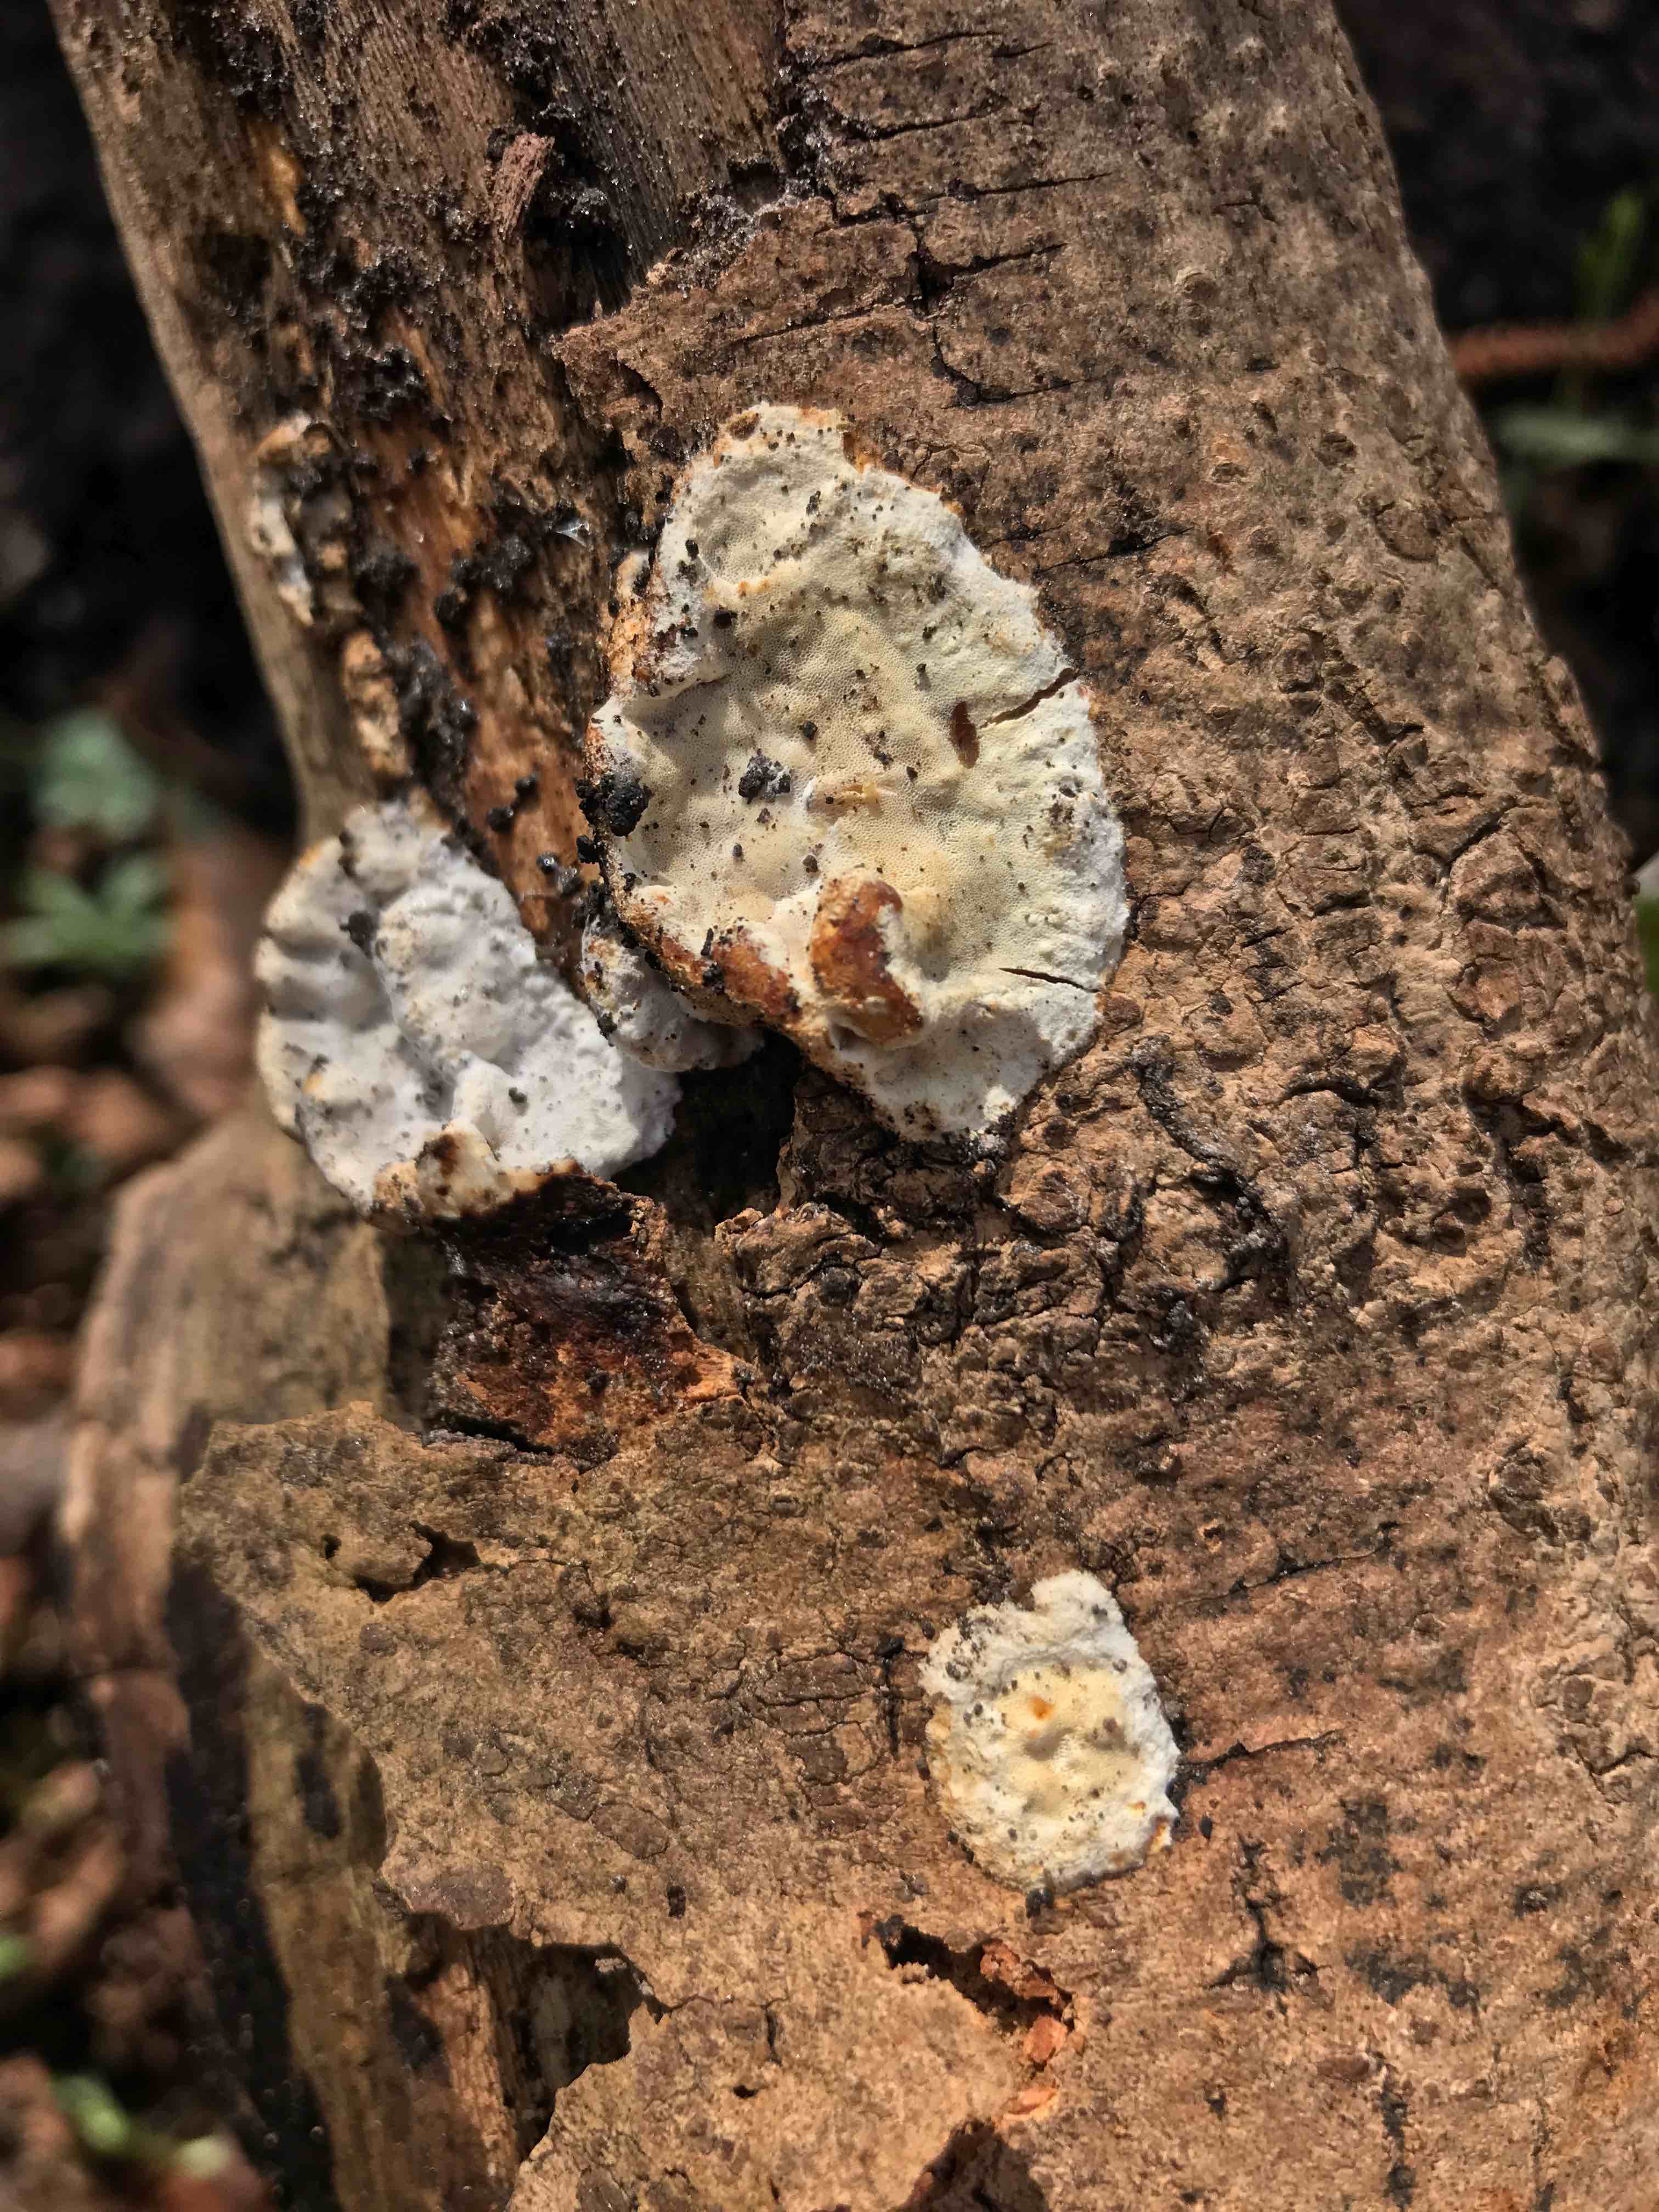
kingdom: Fungi
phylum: Basidiomycota
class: Agaricomycetes
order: Polyporales
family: Incrustoporiaceae
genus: Skeletocutis
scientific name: Skeletocutis nemoralis
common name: stor krystalporesvamp
